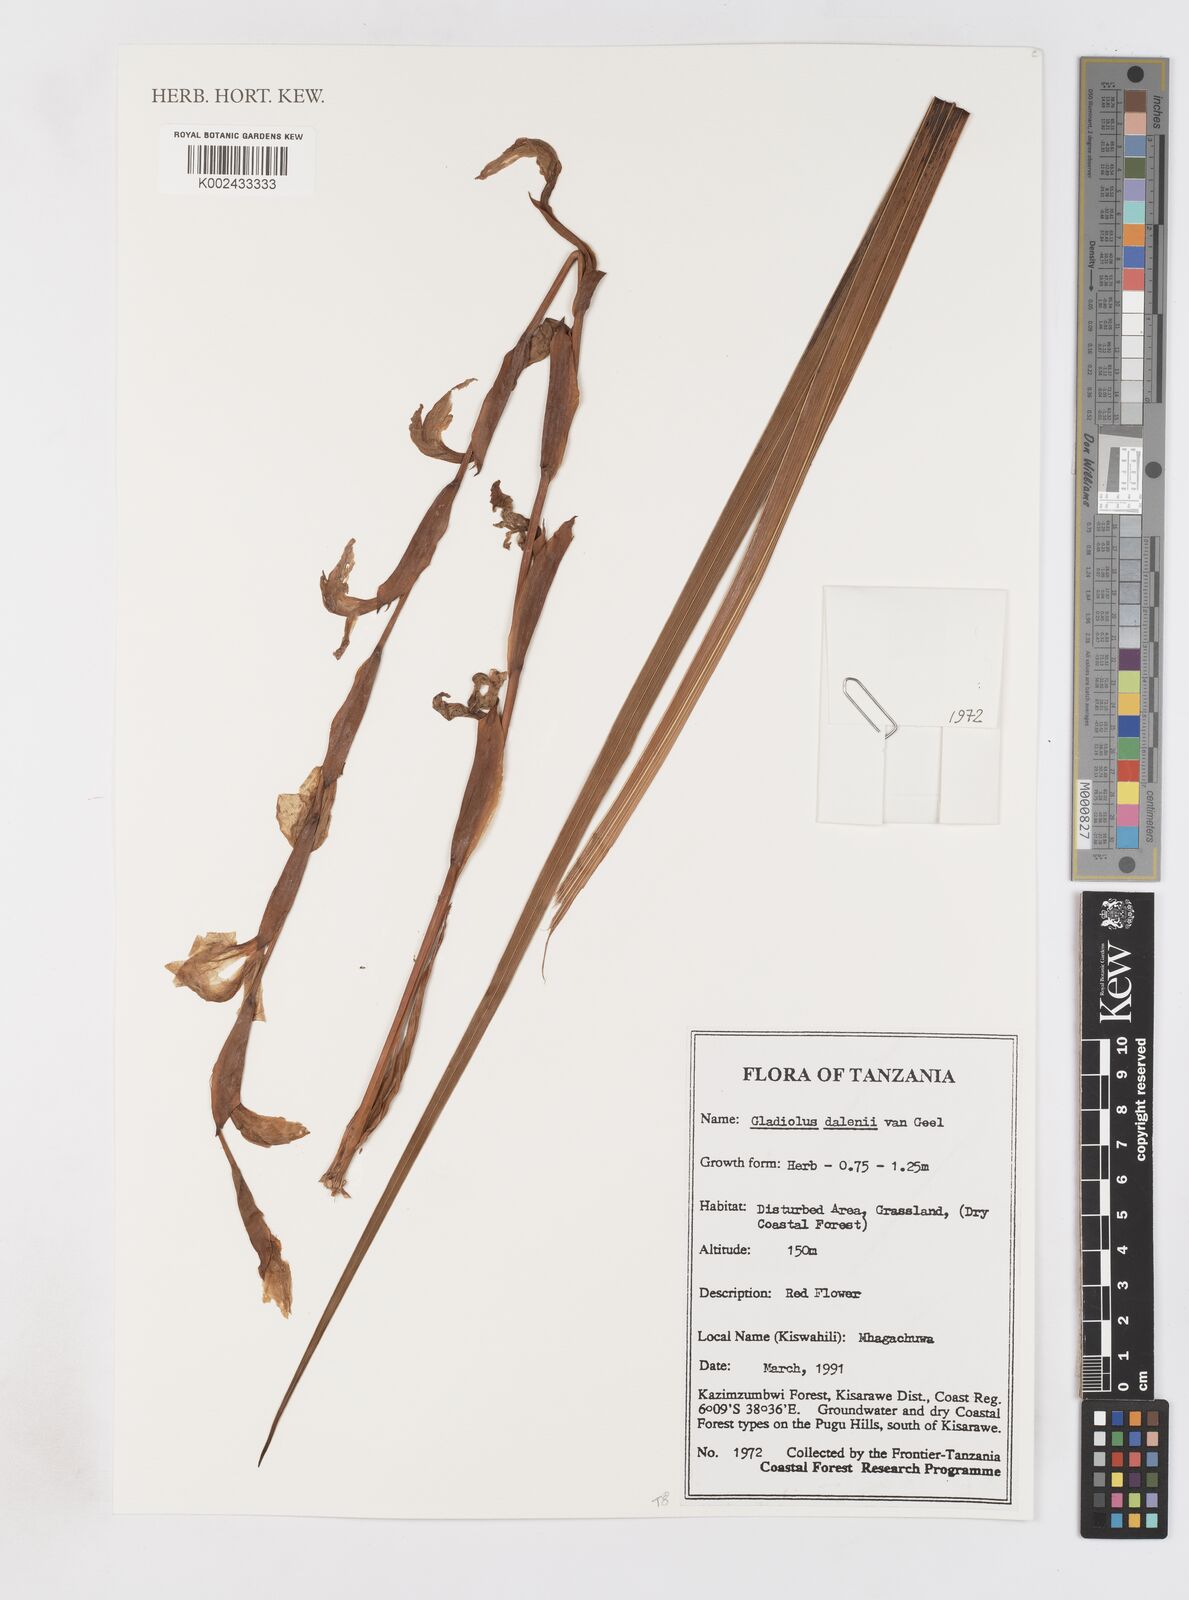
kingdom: Plantae
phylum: Tracheophyta
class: Liliopsida
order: Asparagales
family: Iridaceae
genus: Gladiolus
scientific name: Gladiolus dalenii
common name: Cornflag
